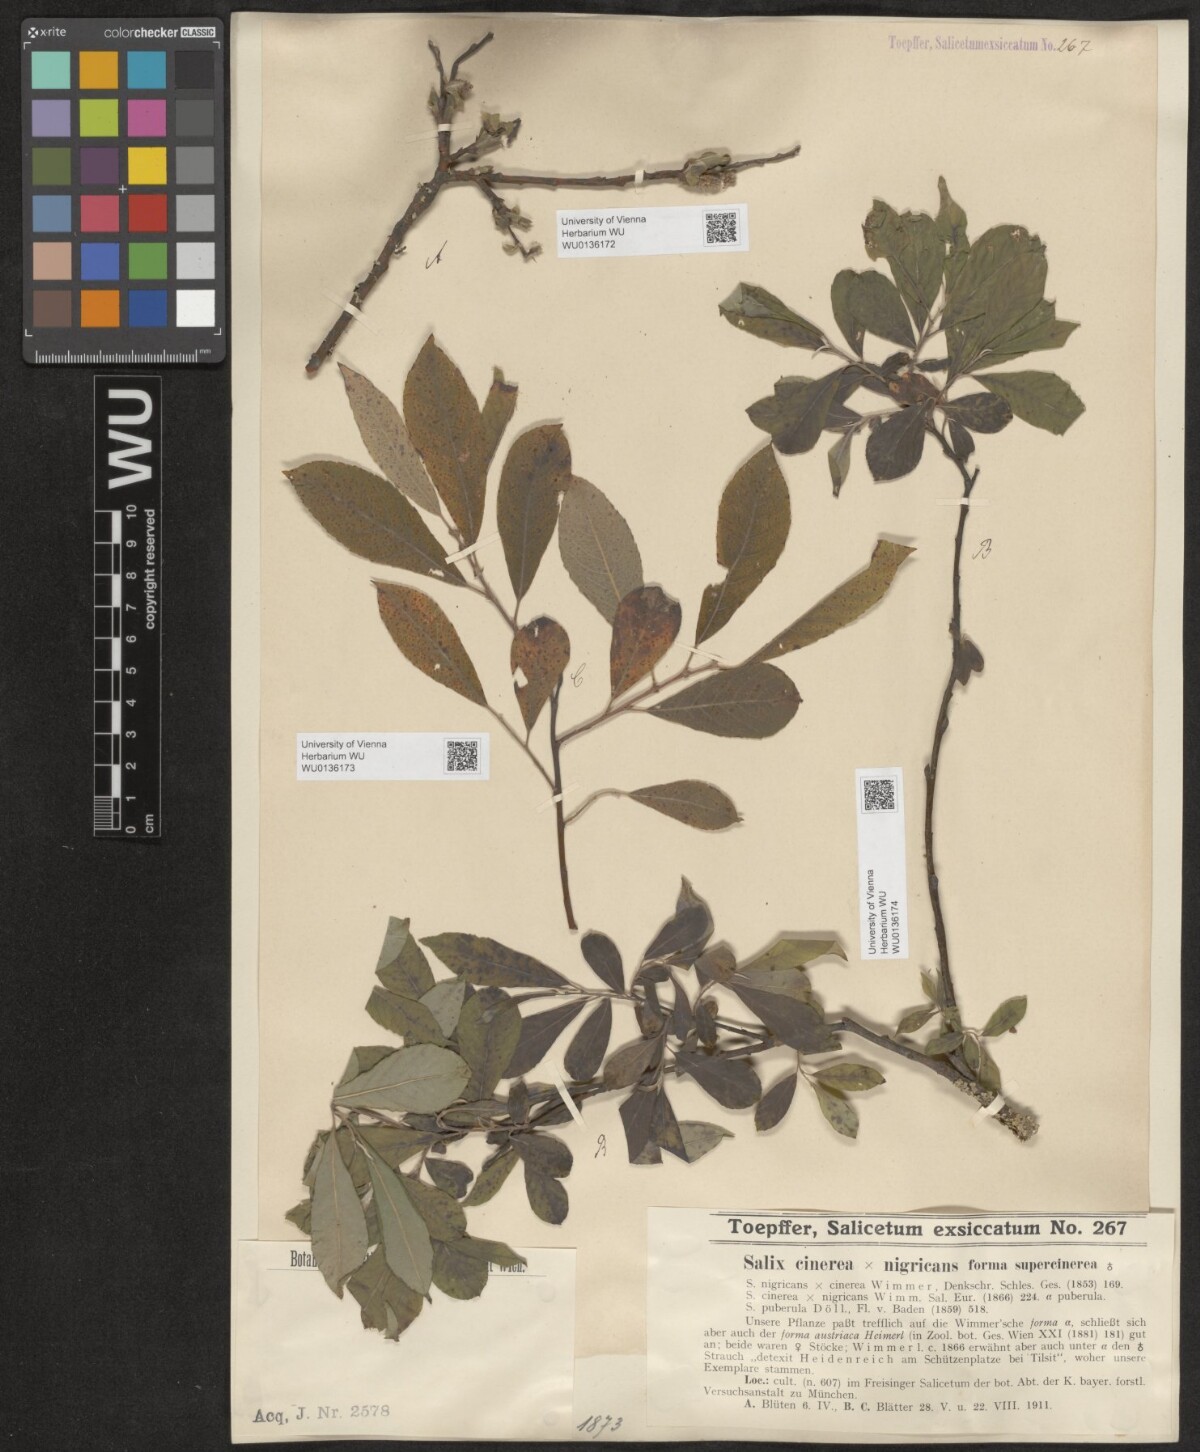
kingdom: Plantae
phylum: Tracheophyta
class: Magnoliopsida
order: Malpighiales
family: Salicaceae
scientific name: Salicaceae
